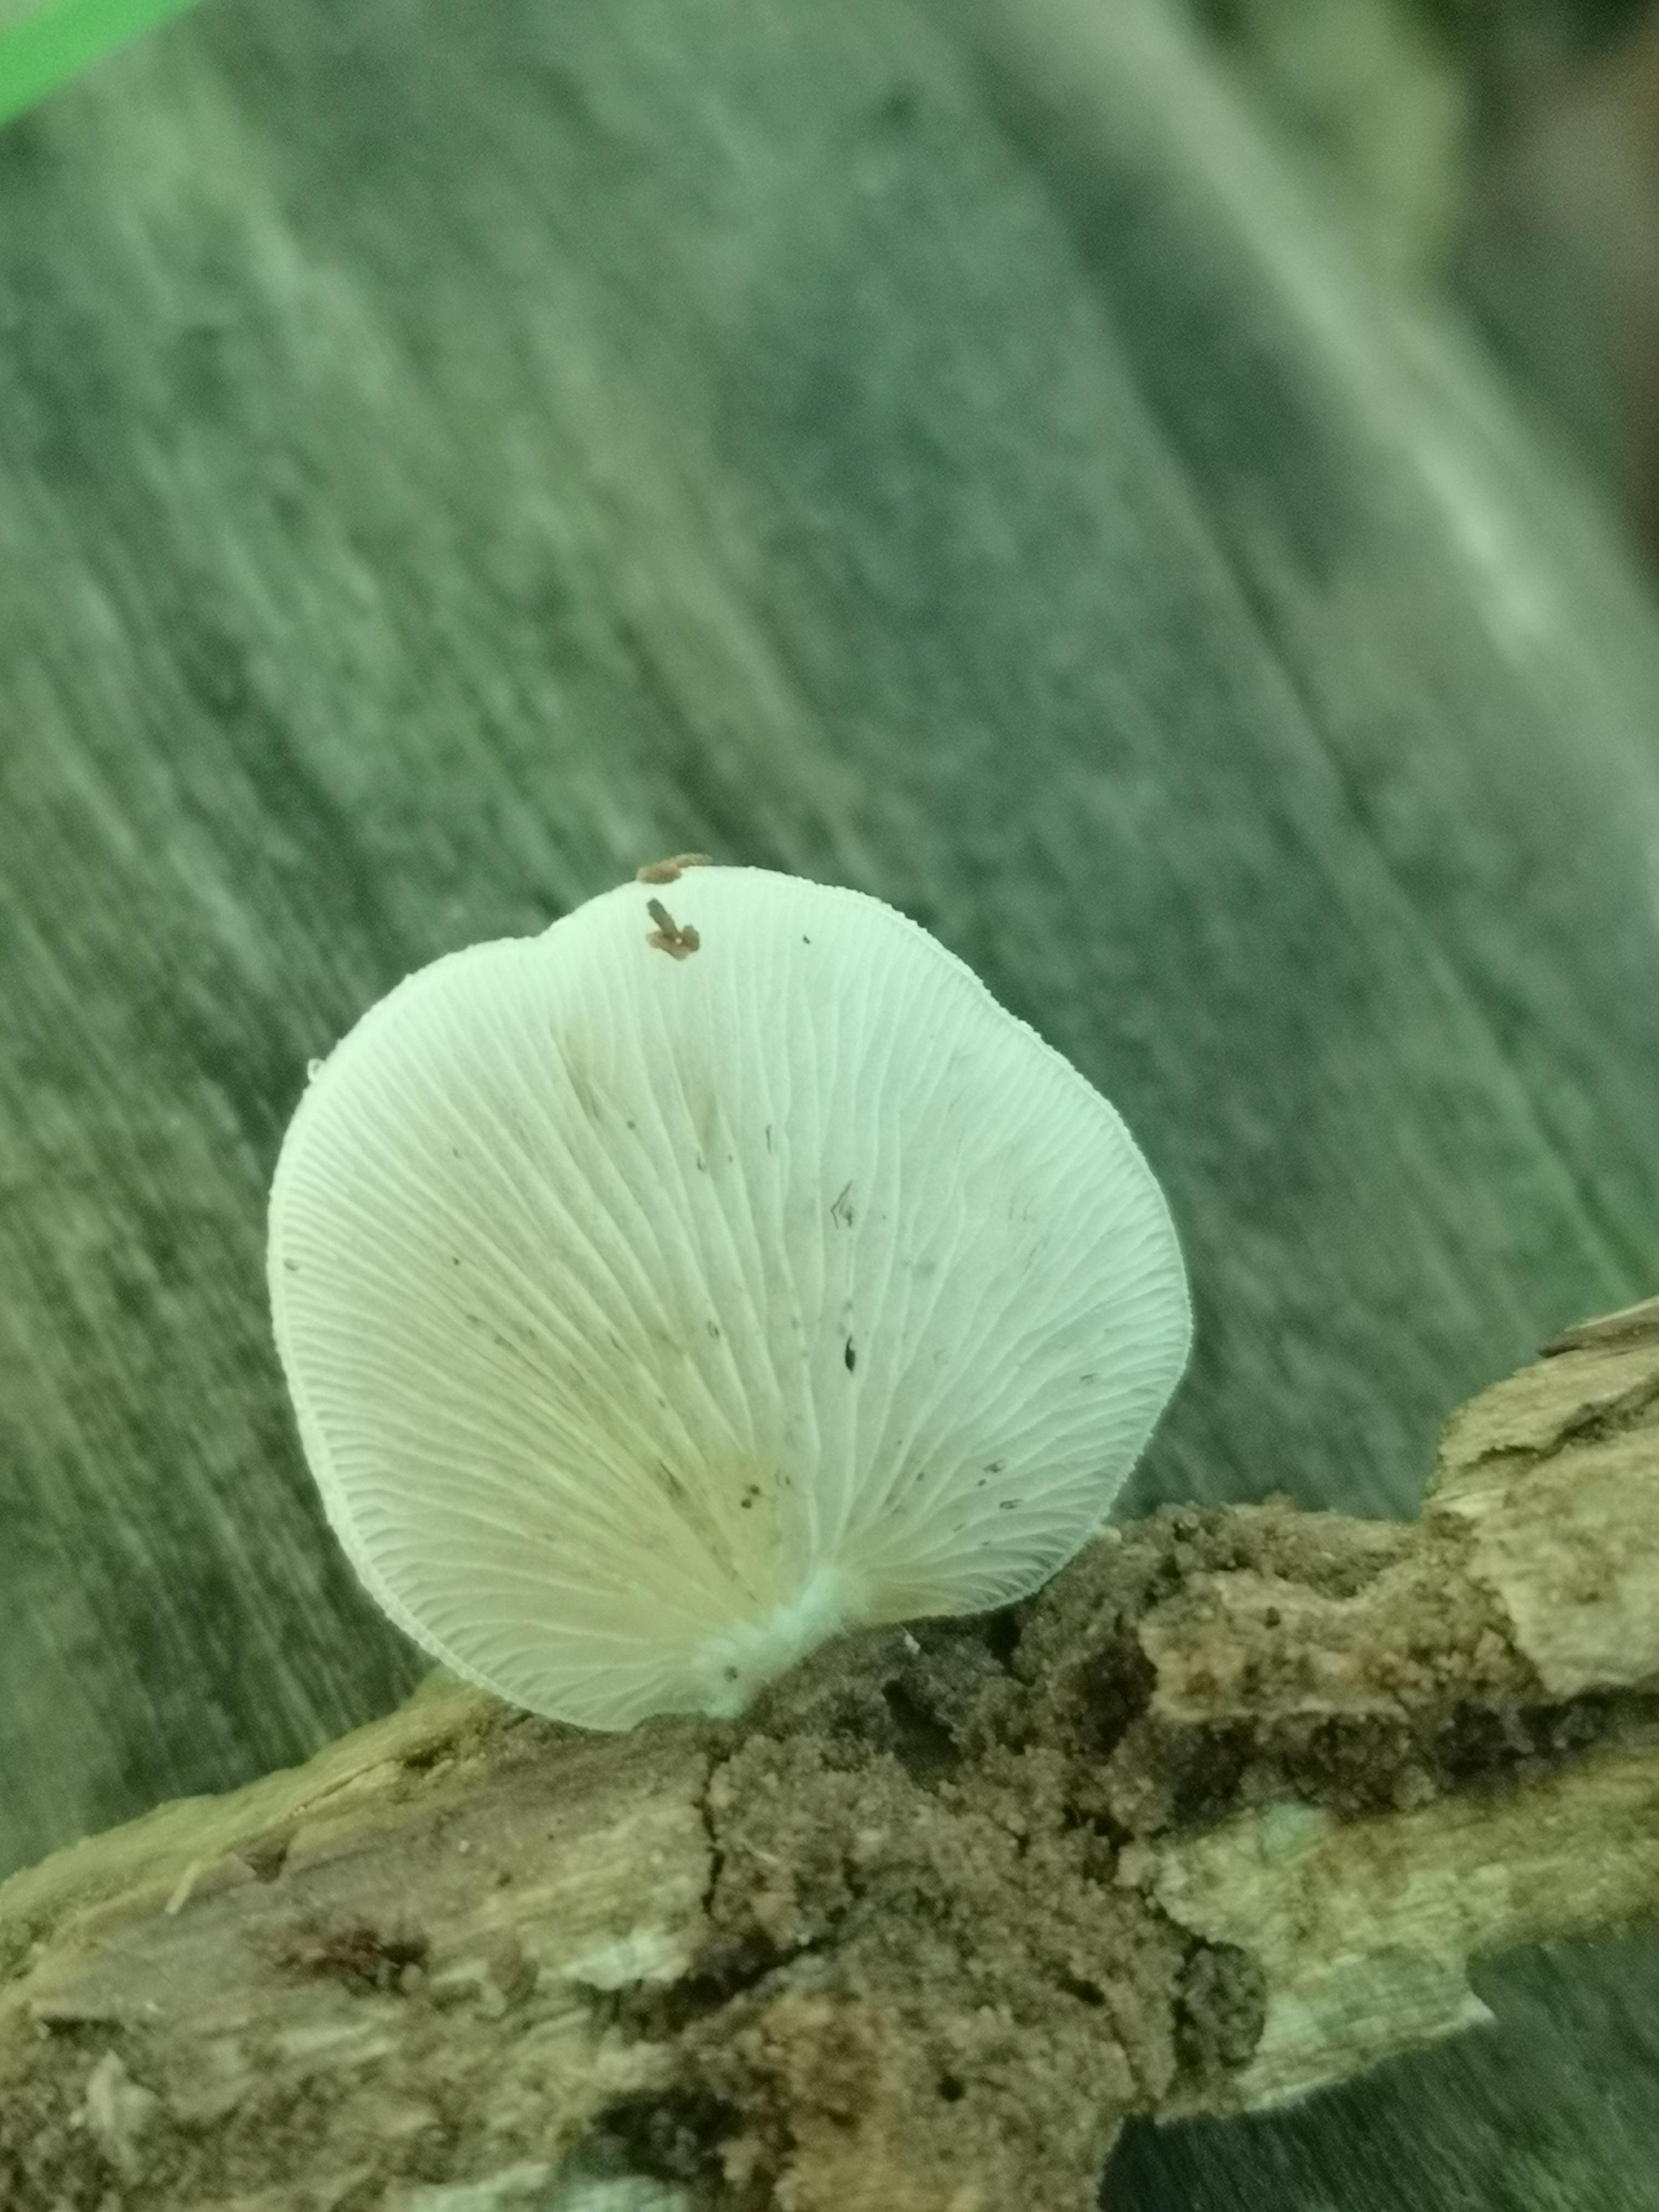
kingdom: Fungi
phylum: Basidiomycota
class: Agaricomycetes
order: Agaricales
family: Crepidotaceae
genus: Crepidotus
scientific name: Crepidotus mollis
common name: blød muslingesvamp
